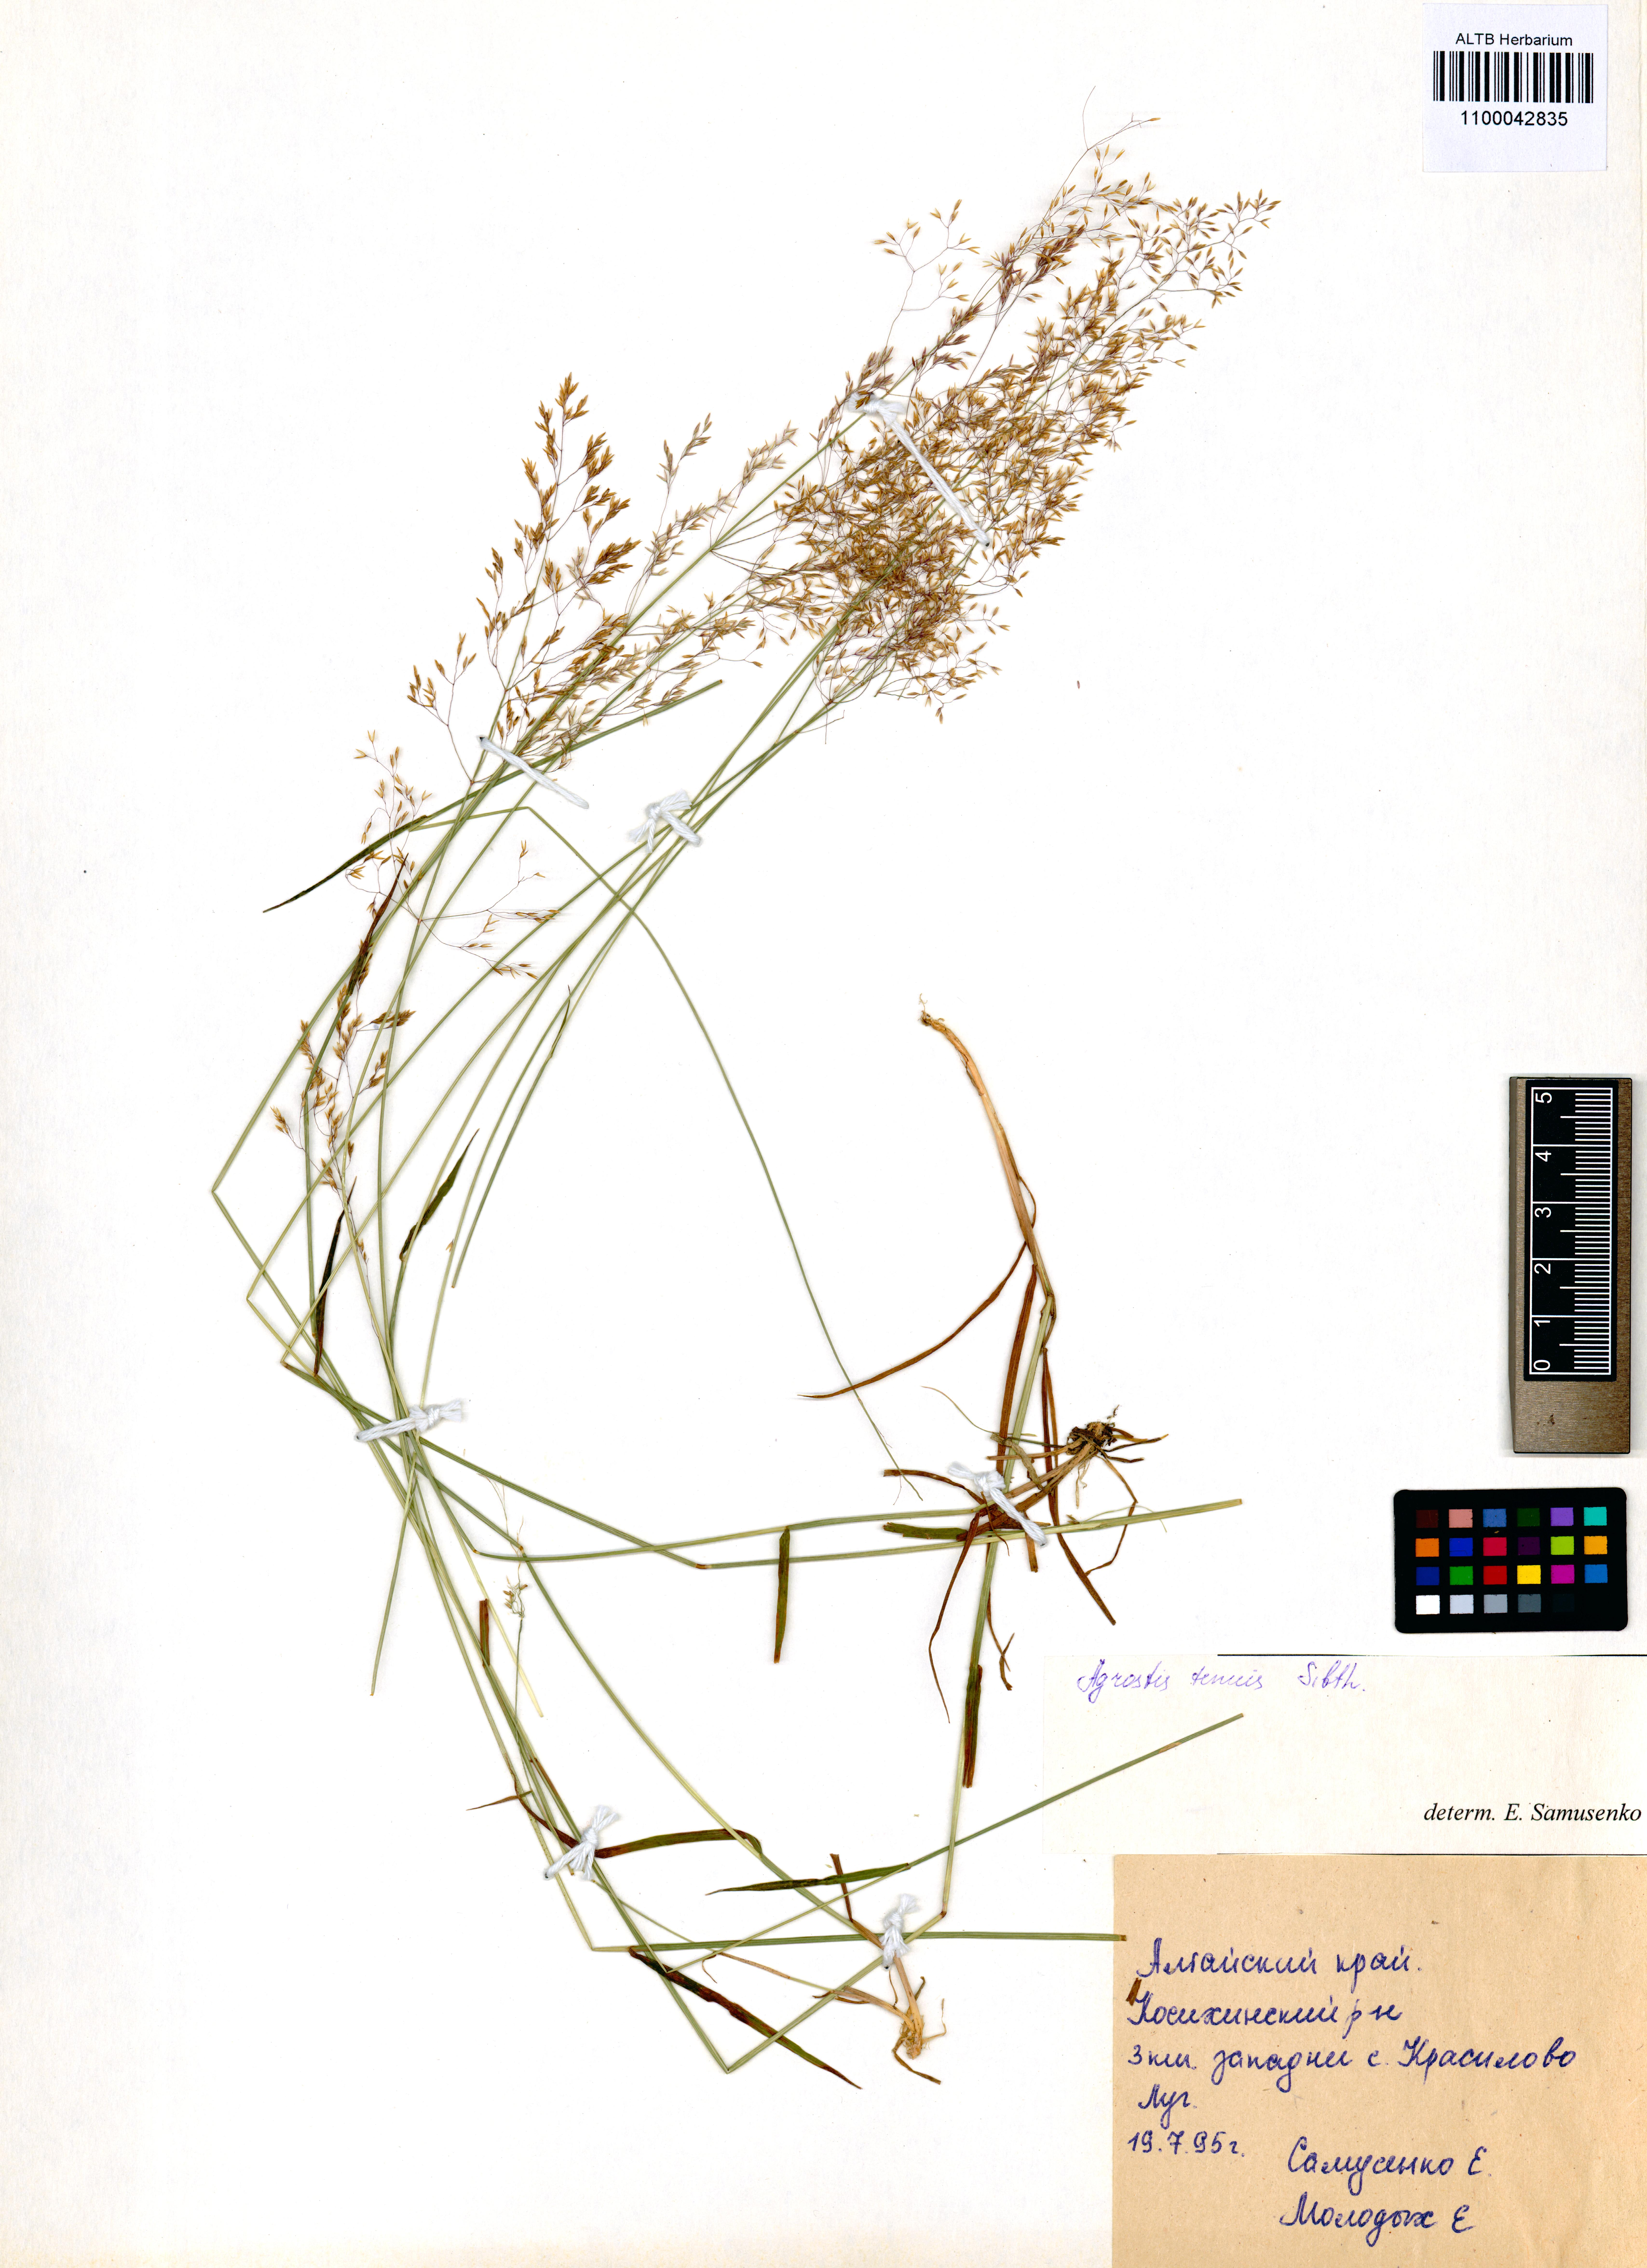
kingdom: Plantae
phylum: Tracheophyta
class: Liliopsida
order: Poales
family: Poaceae
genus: Agrostis
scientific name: Agrostis capillaris
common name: Colonial bentgrass
